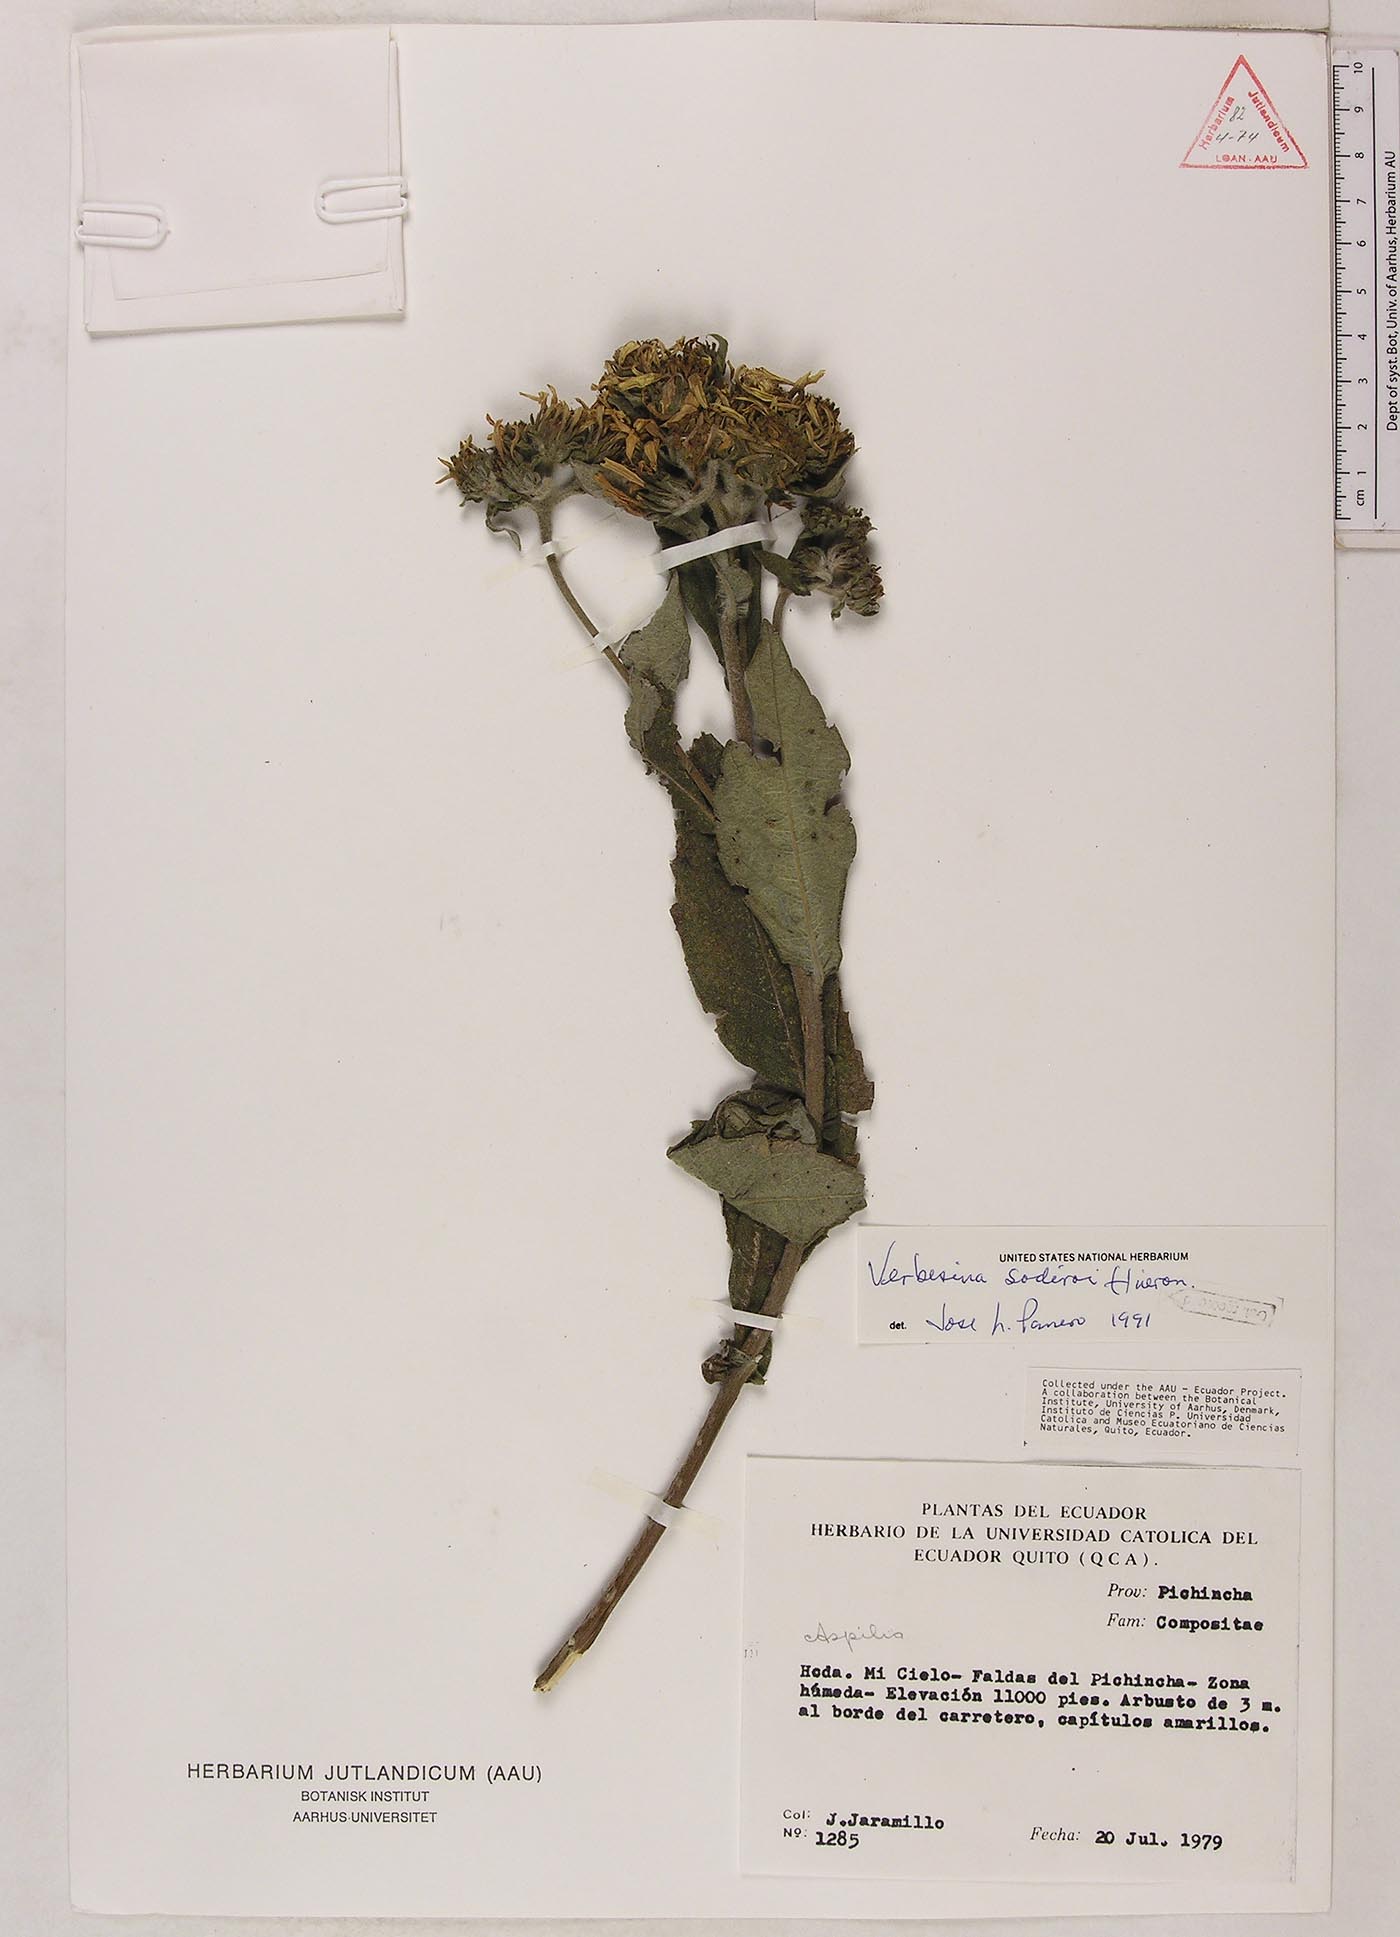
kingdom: Plantae
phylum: Tracheophyta
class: Magnoliopsida
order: Asterales
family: Asteraceae
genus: Verbesina
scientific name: Verbesina sodiroi
